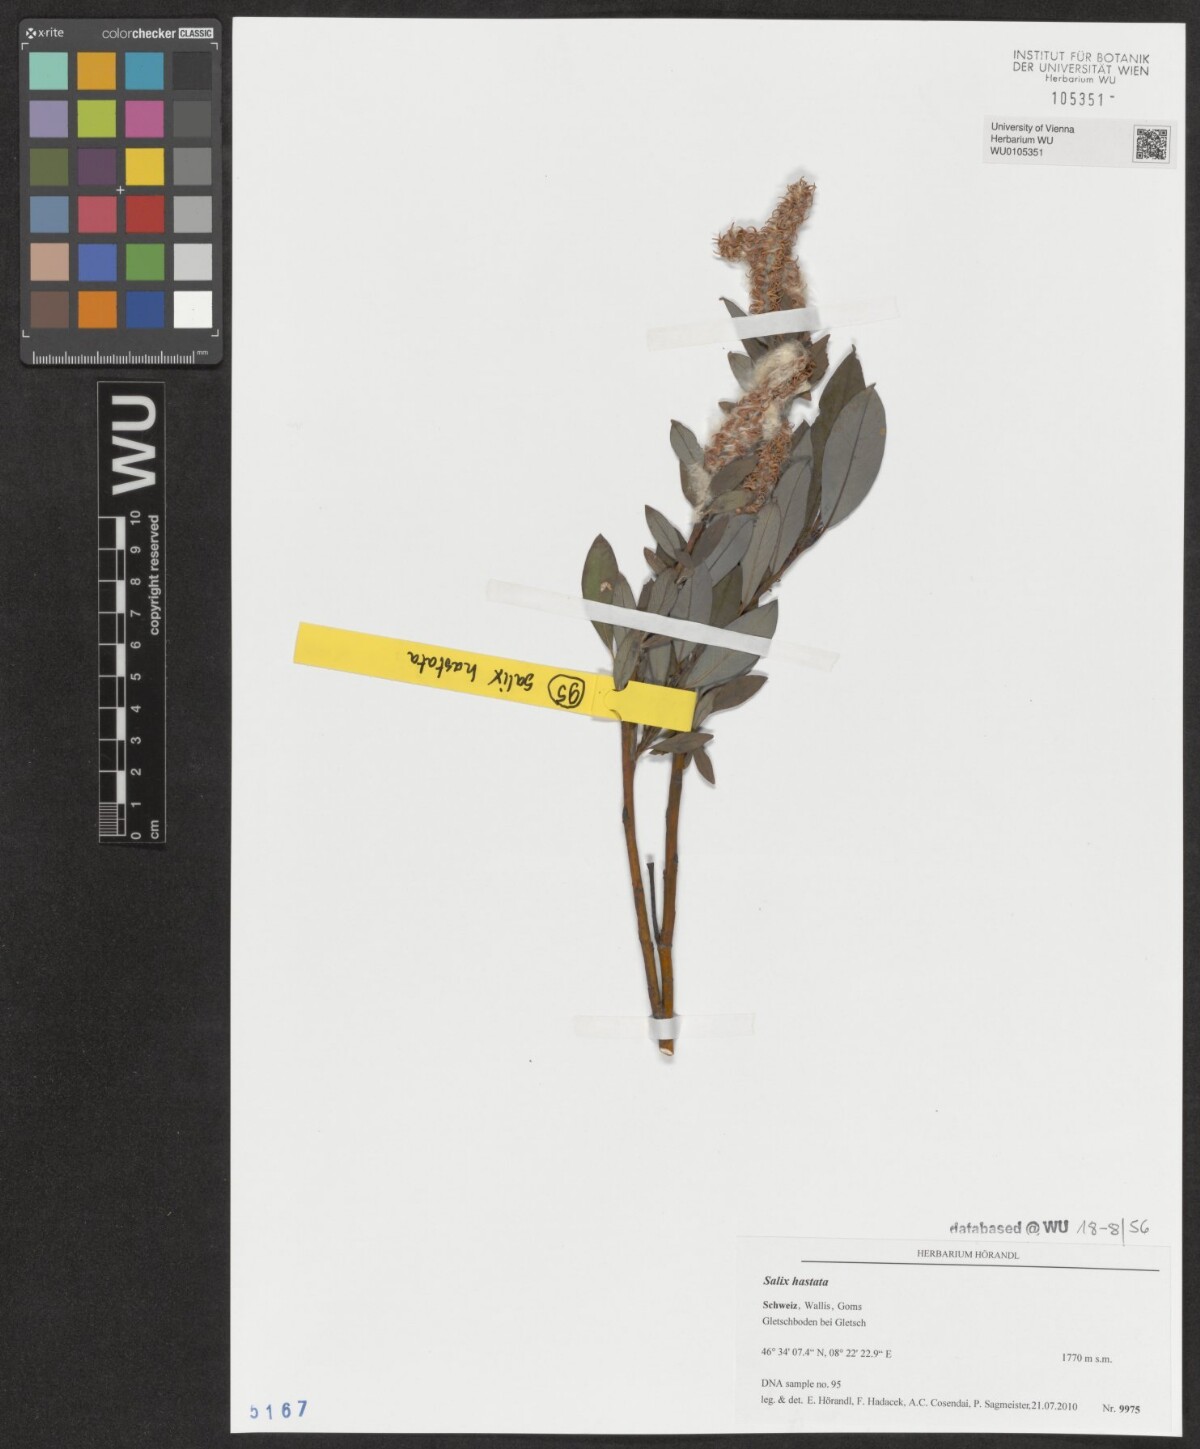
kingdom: Plantae
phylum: Tracheophyta
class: Magnoliopsida
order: Malpighiales
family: Salicaceae
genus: Salix
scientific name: Salix hastata
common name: Halberd willow
